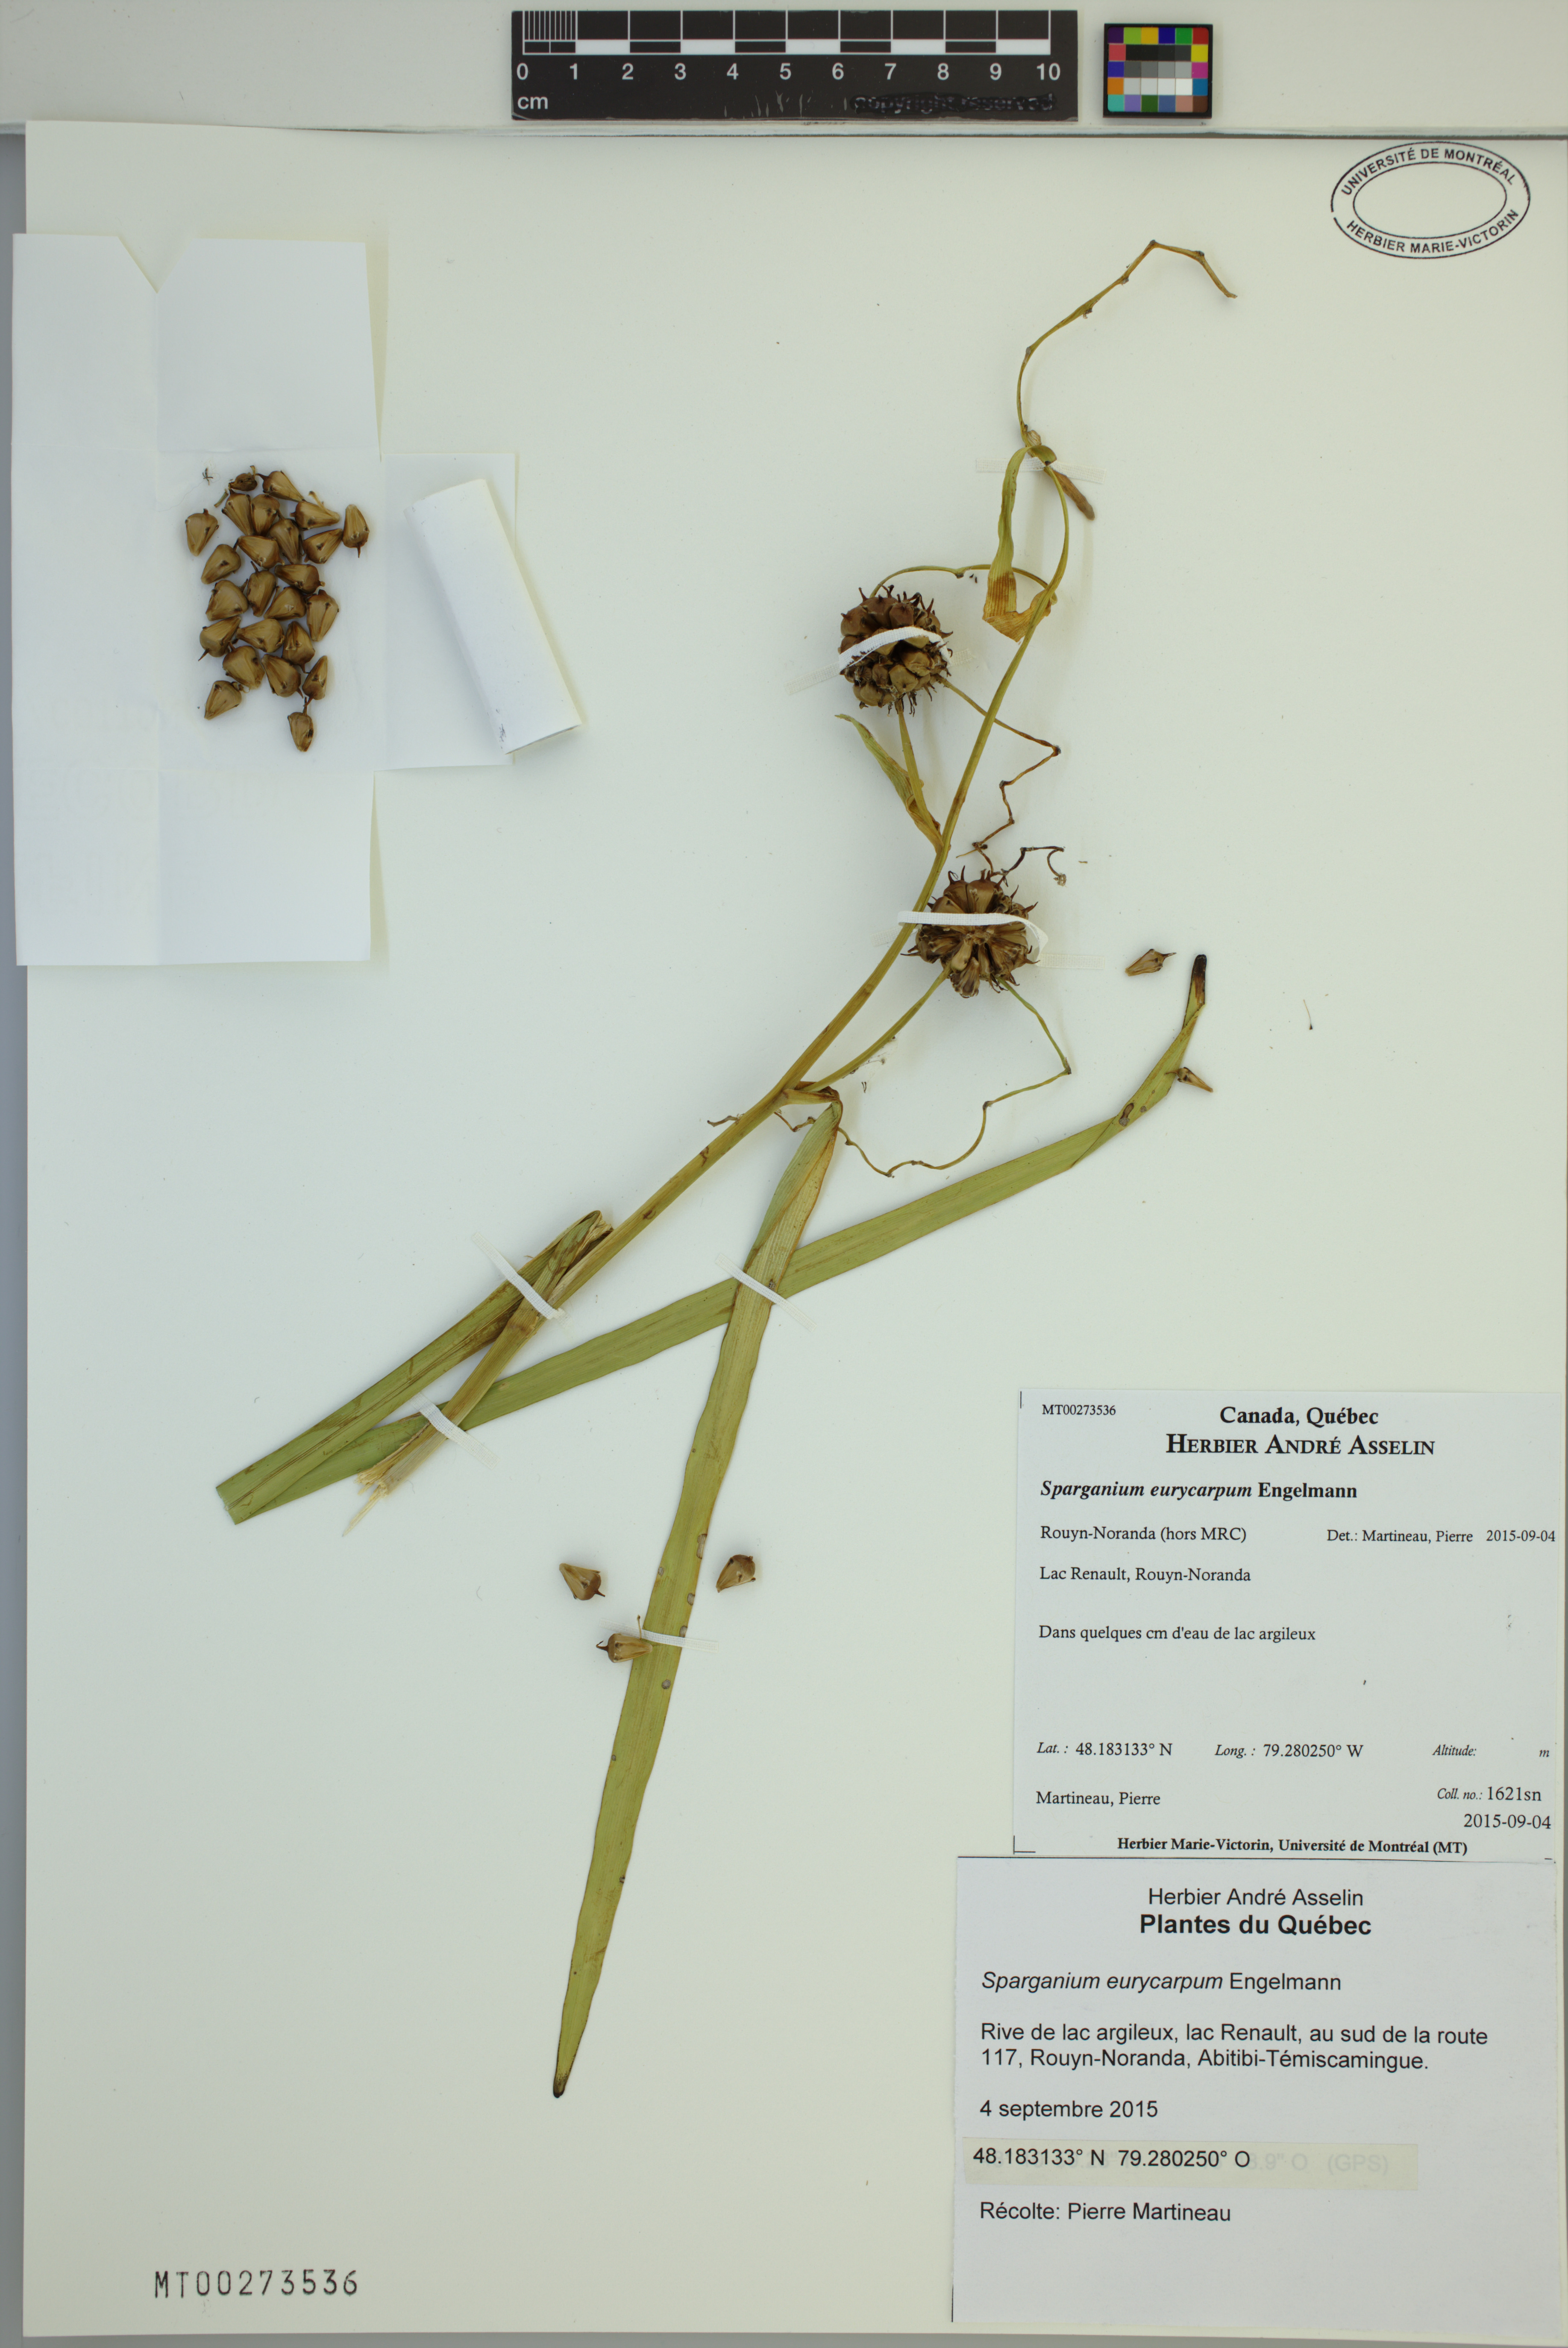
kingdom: Plantae
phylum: Tracheophyta
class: Liliopsida
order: Poales
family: Typhaceae
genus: Sparganium
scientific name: Sparganium eurycarpum
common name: Broad-fruited burreed
